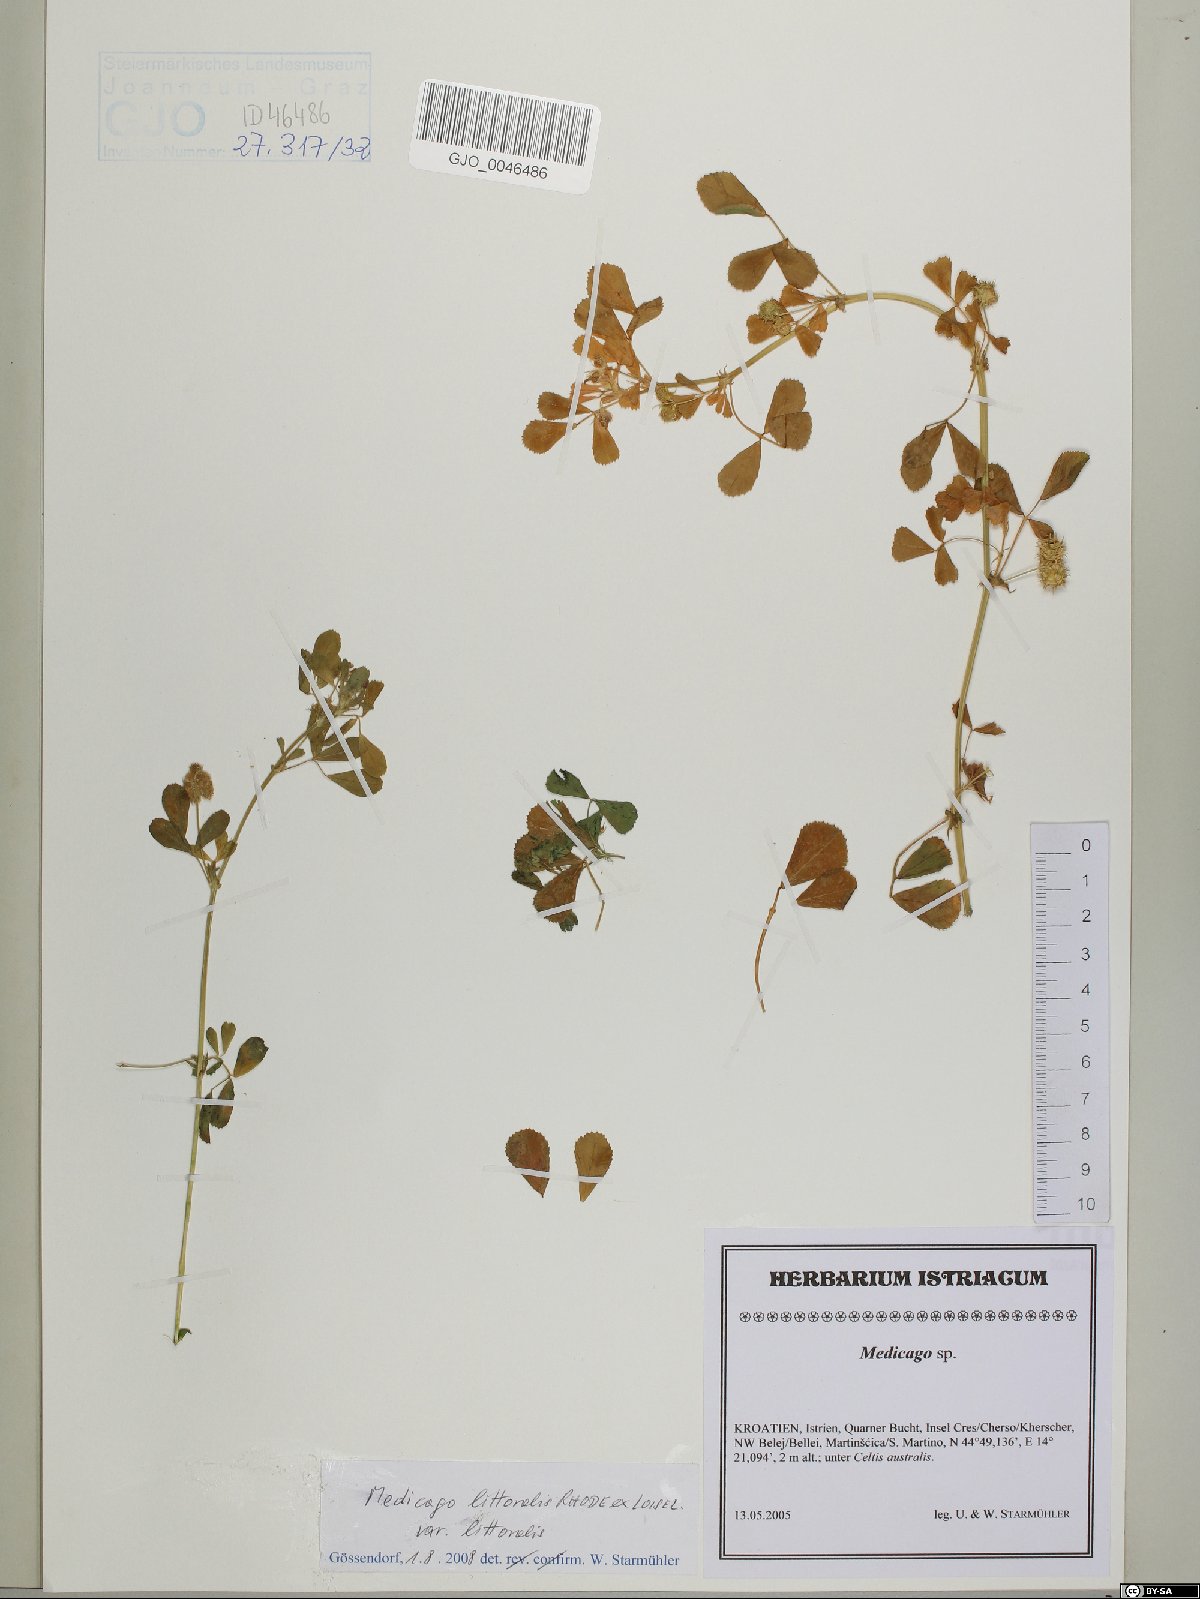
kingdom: Plantae
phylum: Tracheophyta
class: Magnoliopsida
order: Fabales
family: Fabaceae
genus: Medicago
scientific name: Medicago littoralis
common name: Shore medick
